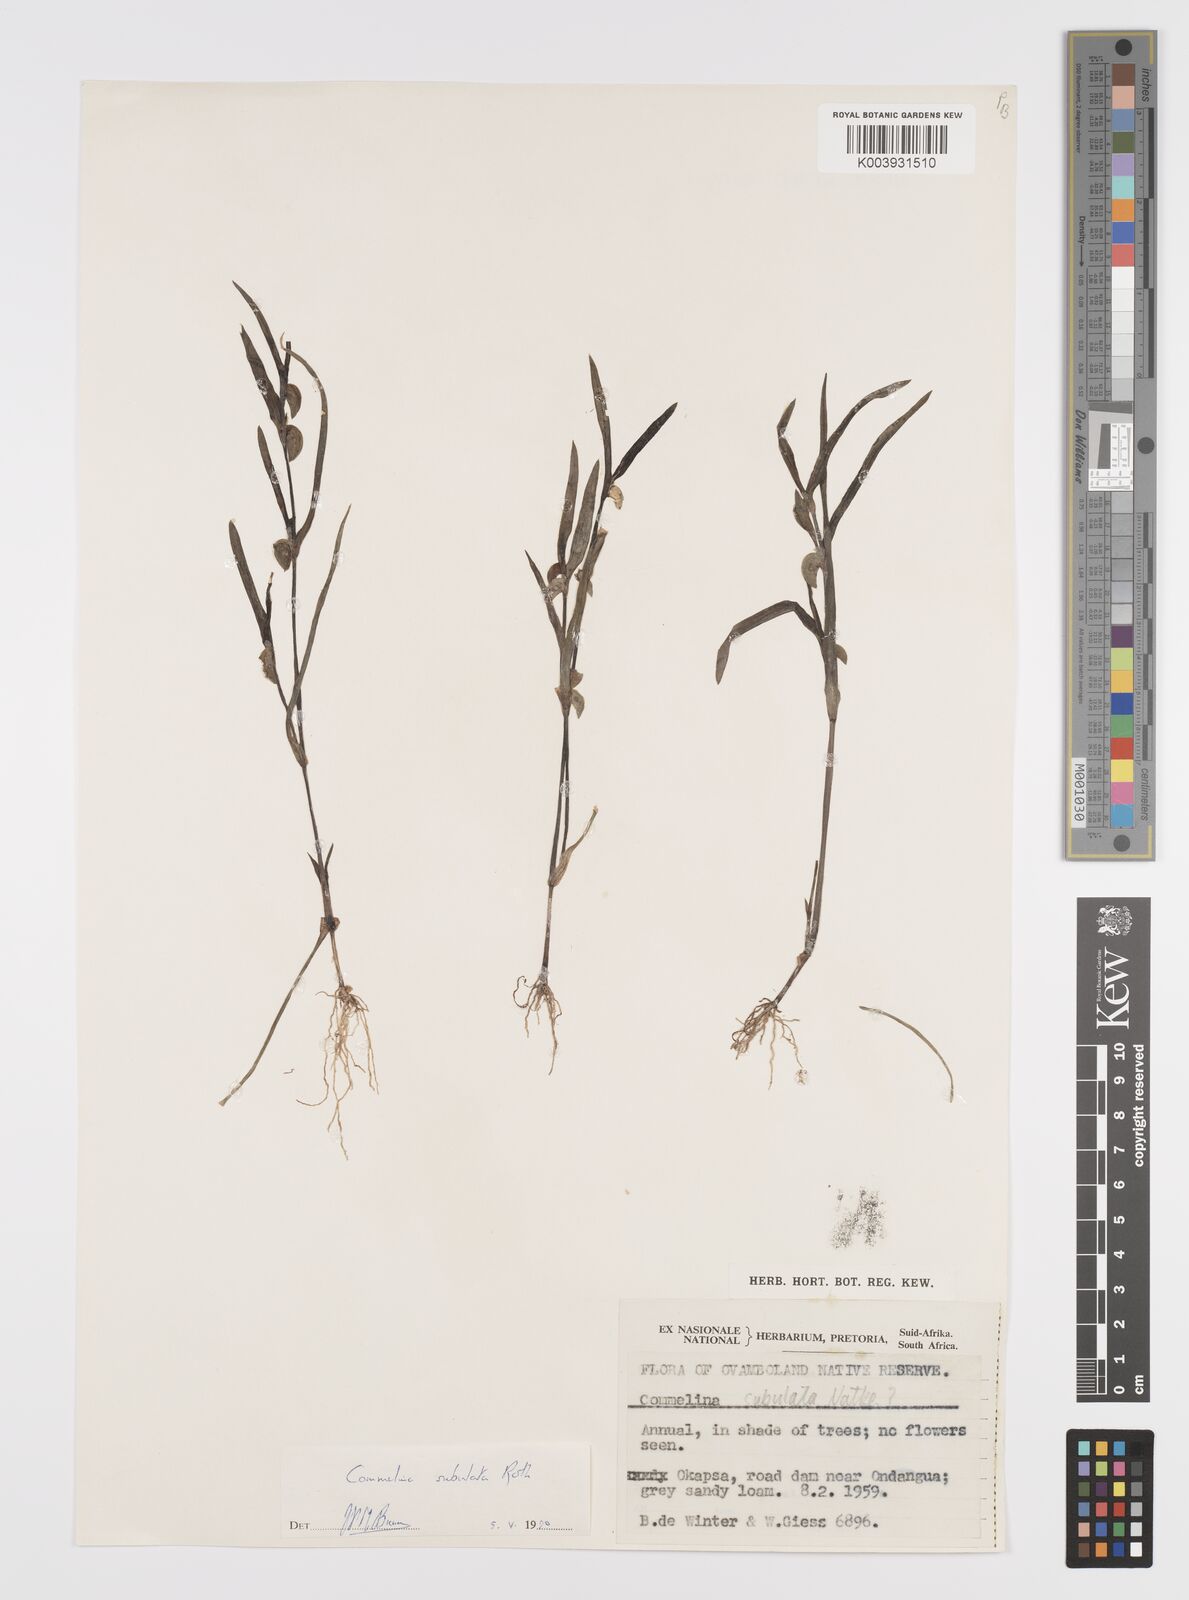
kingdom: Plantae
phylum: Tracheophyta
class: Liliopsida
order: Commelinales
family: Commelinaceae
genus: Commelina
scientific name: Commelina subulata
